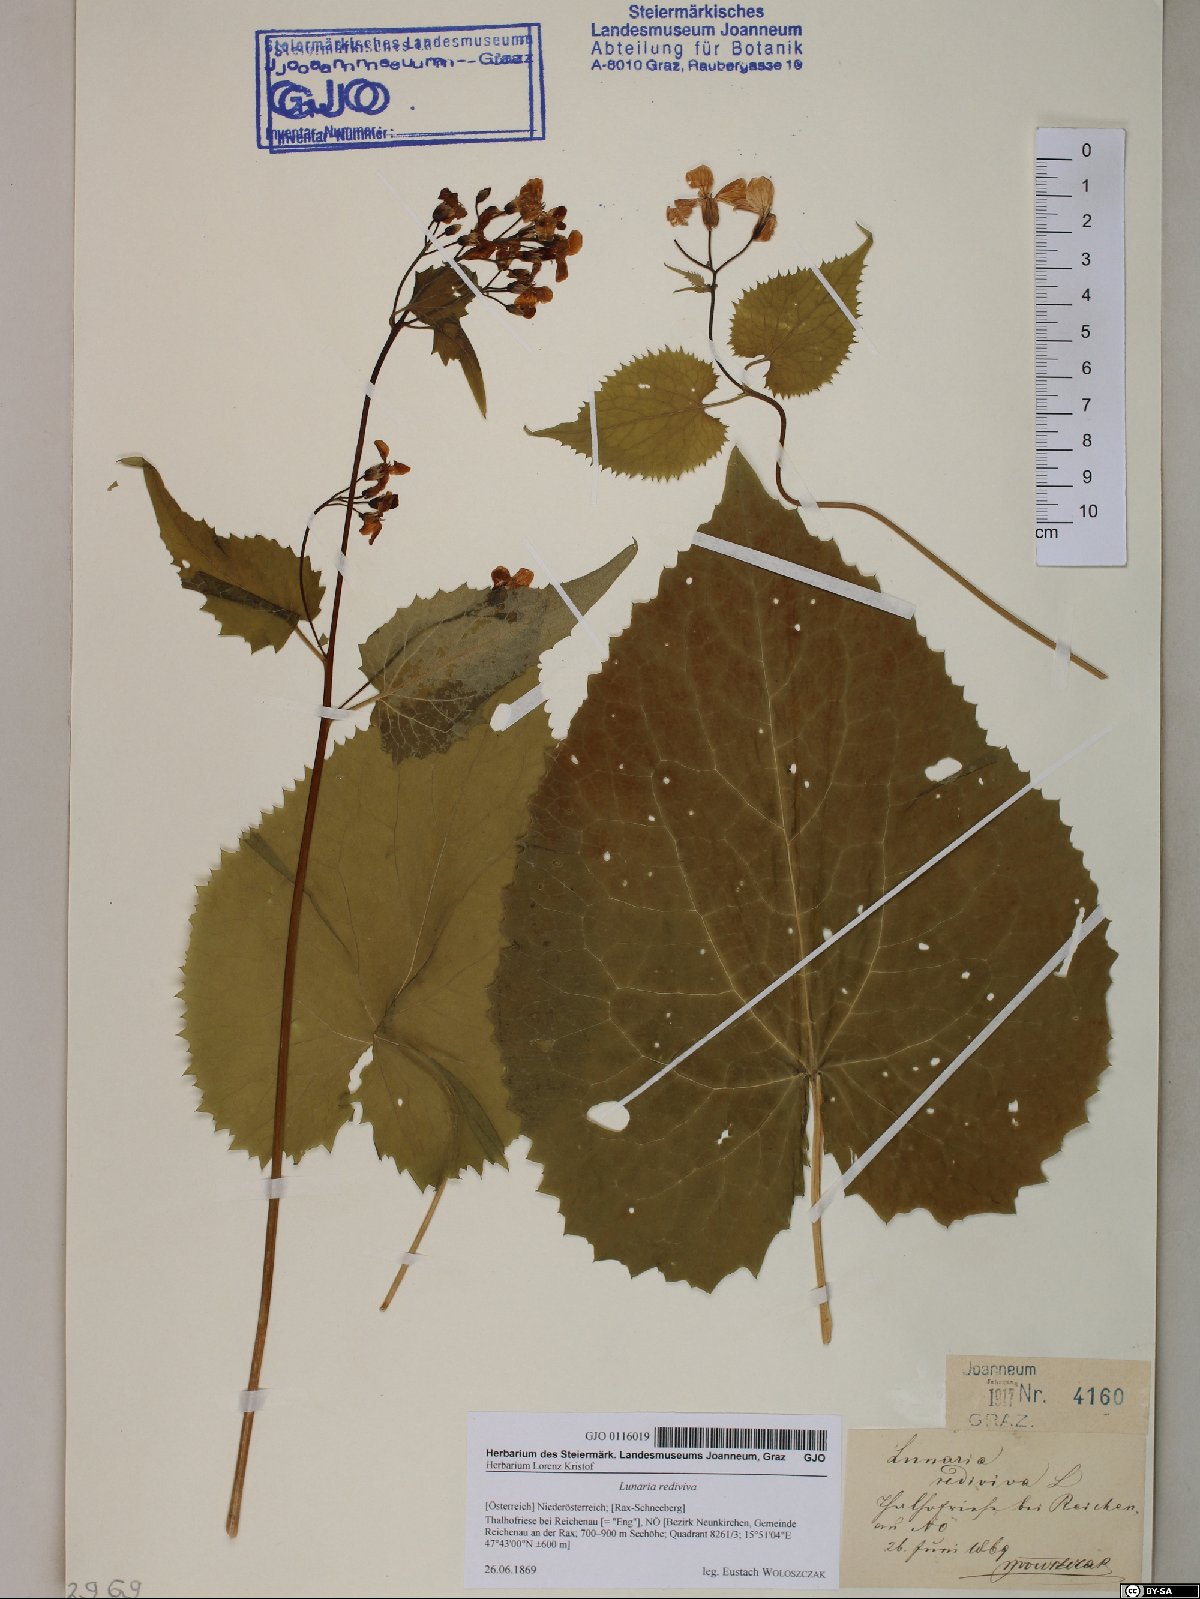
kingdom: Plantae
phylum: Tracheophyta
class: Magnoliopsida
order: Brassicales
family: Brassicaceae
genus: Lunaria
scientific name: Lunaria rediviva
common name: Perennial honesty
